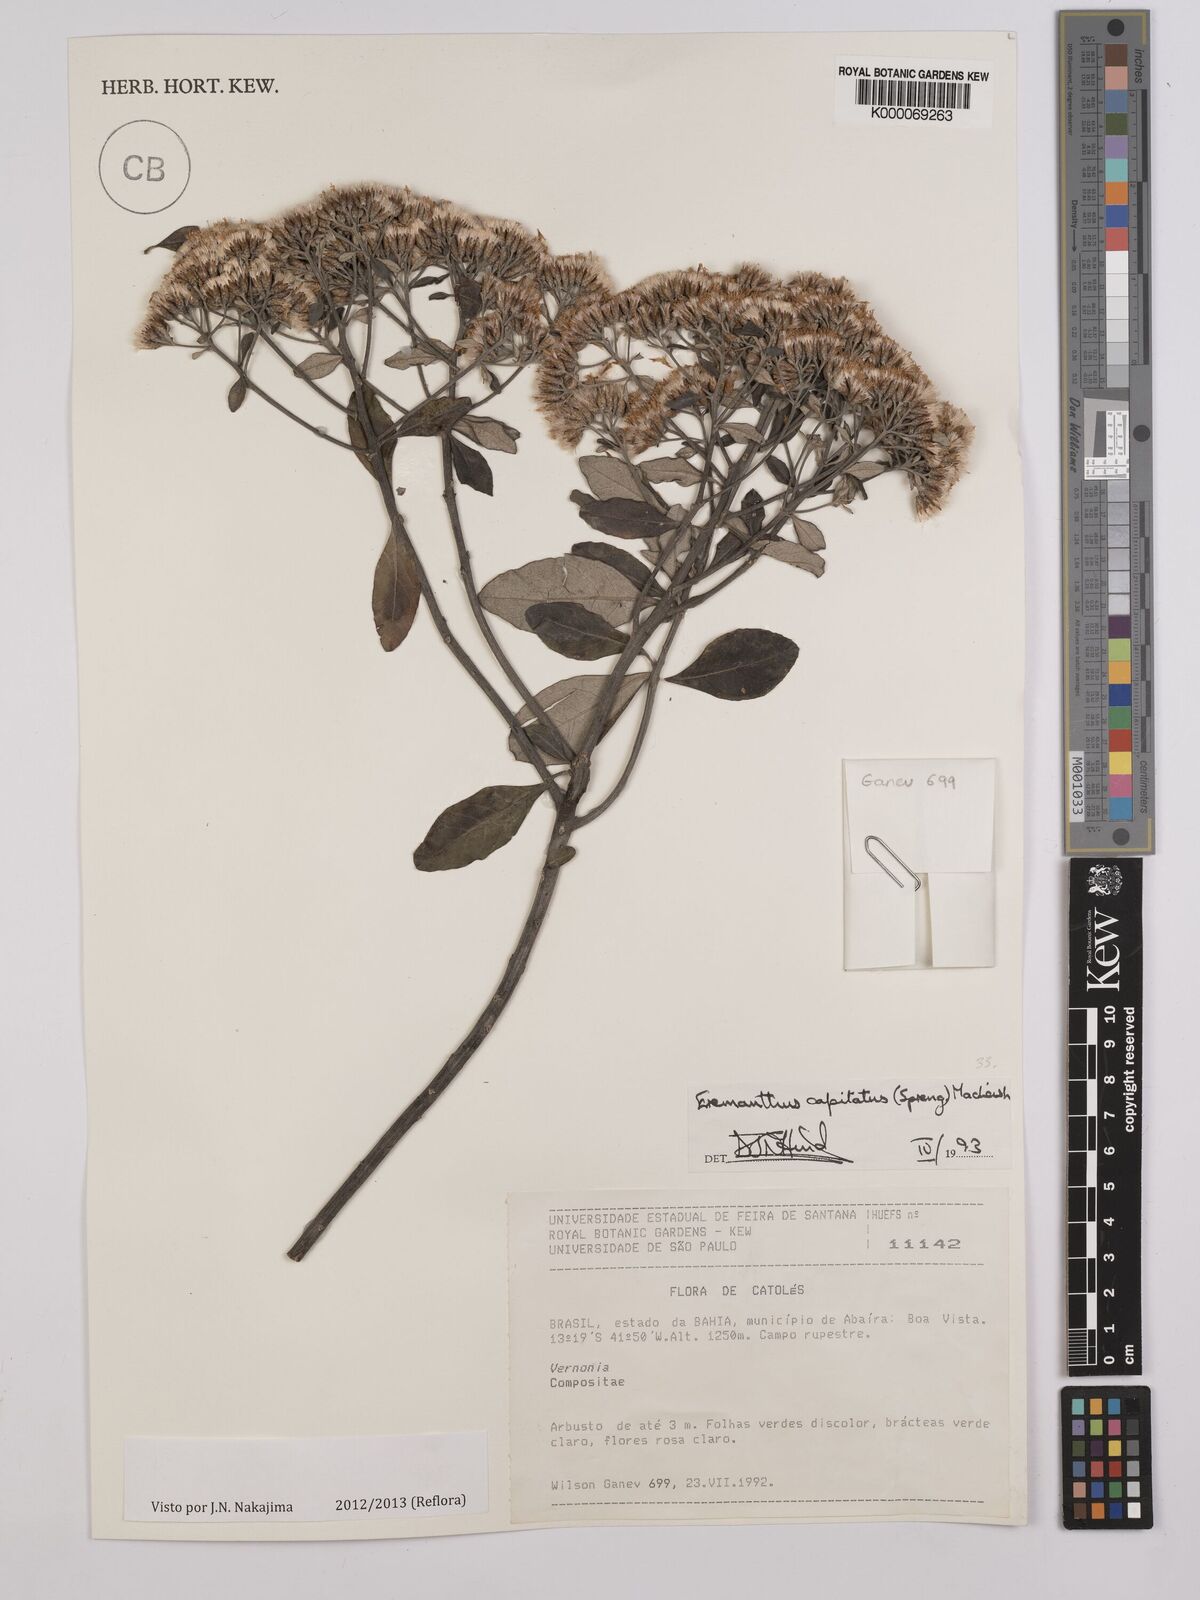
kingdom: Plantae
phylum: Tracheophyta
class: Magnoliopsida
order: Asterales
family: Asteraceae
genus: Eremanthus
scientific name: Eremanthus capitatus
